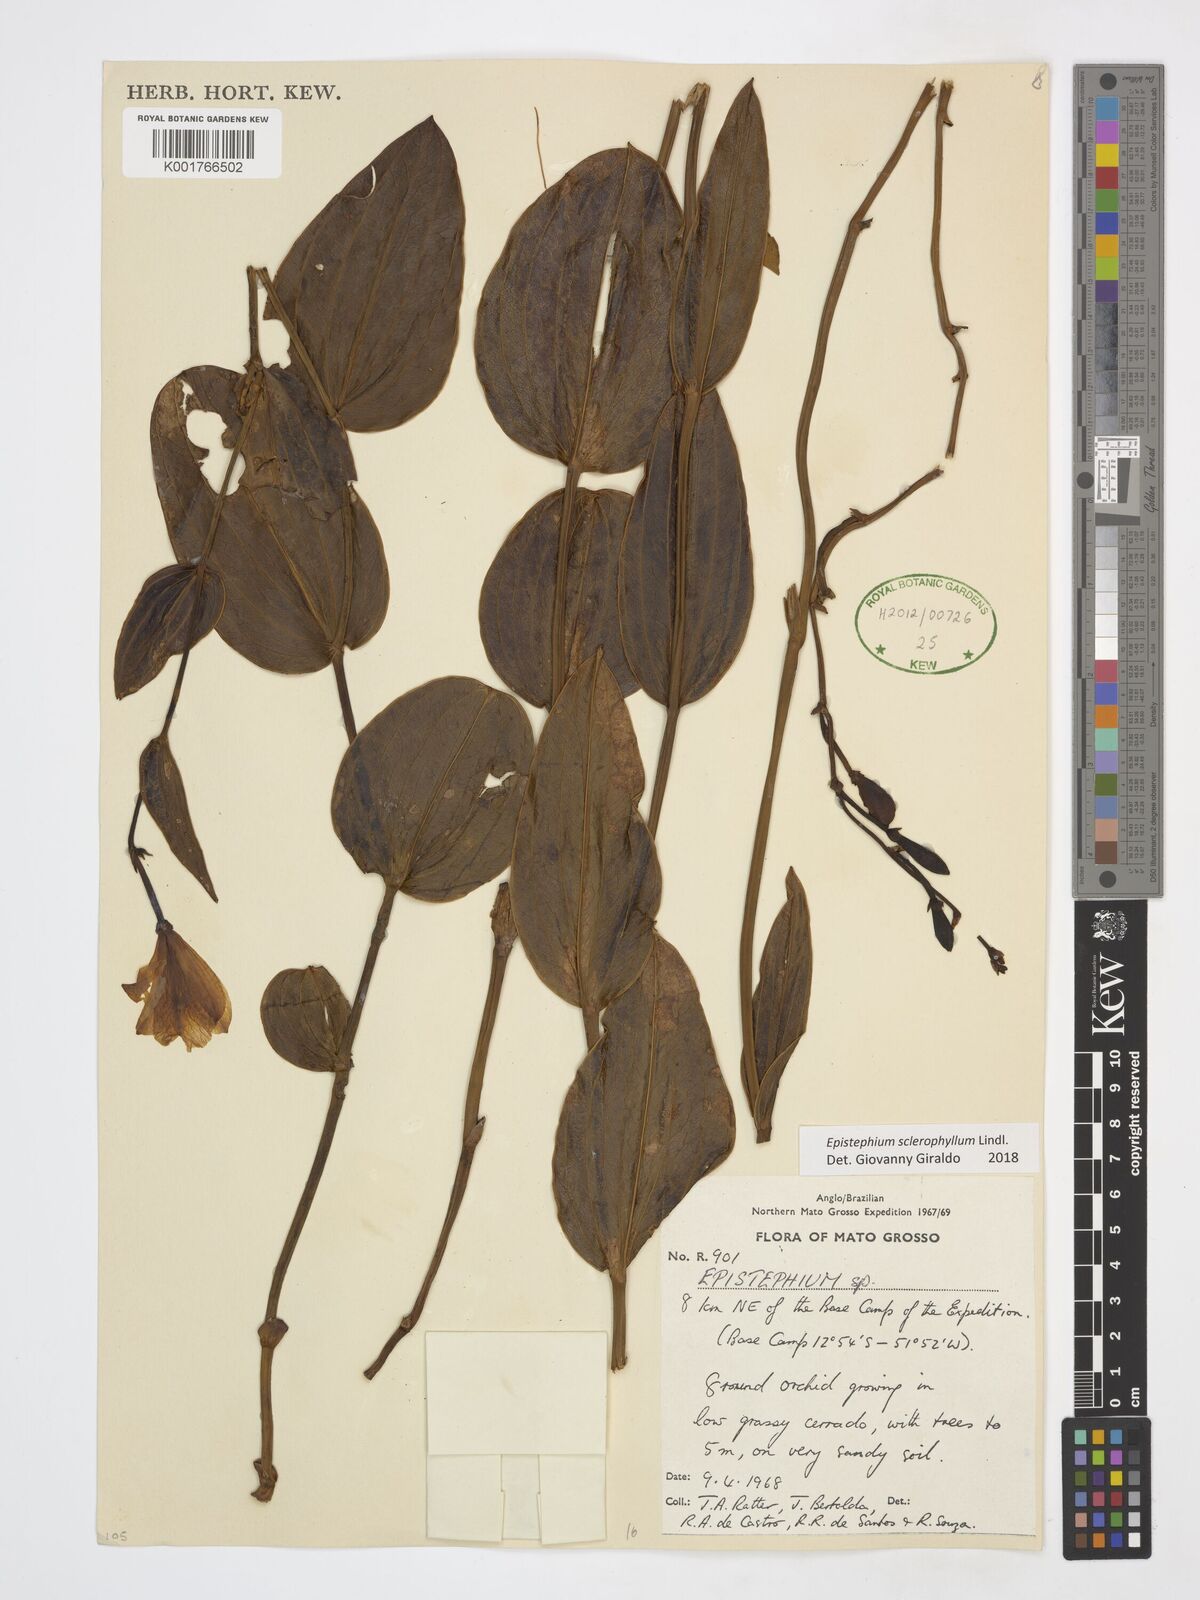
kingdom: Plantae
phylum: Tracheophyta
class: Liliopsida
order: Asparagales
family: Orchidaceae
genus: Epistephium
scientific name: Epistephium sclerophyllum
